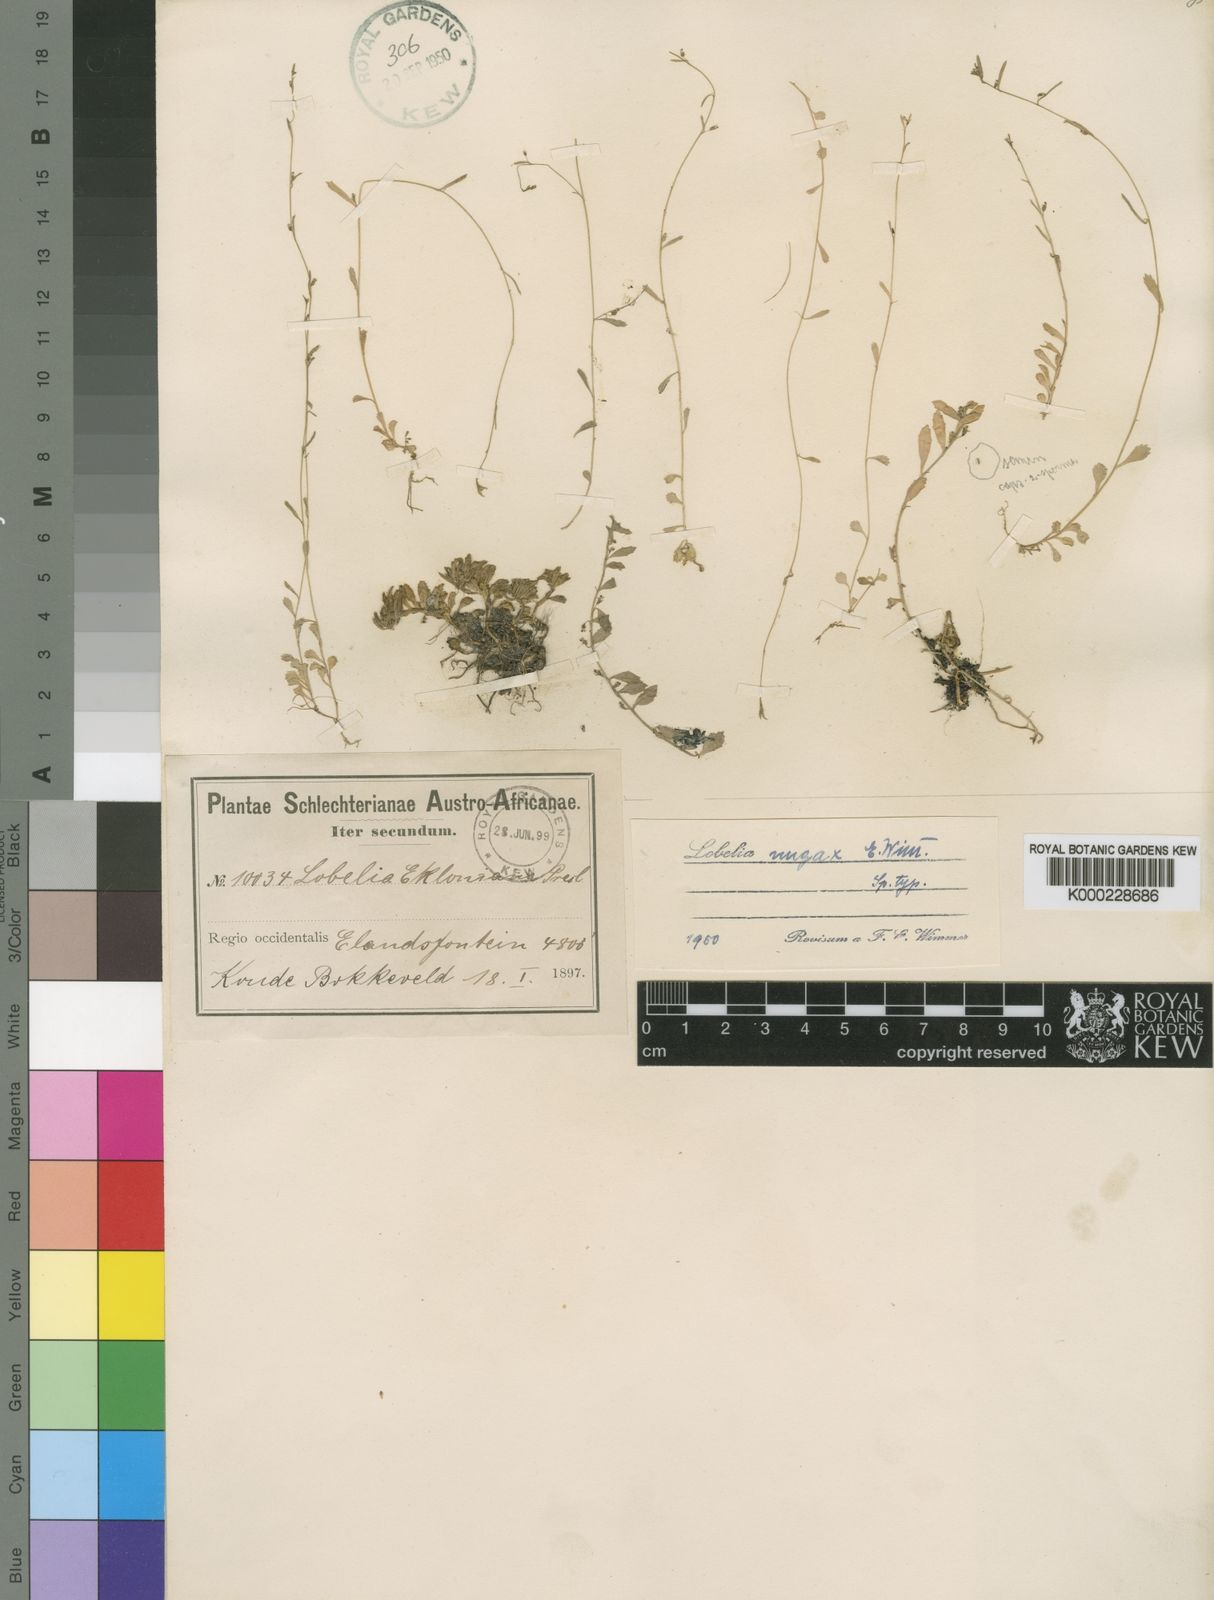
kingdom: Plantae
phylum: Tracheophyta
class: Magnoliopsida
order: Asterales
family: Campanulaceae
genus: Lobelia
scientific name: Lobelia nugax
